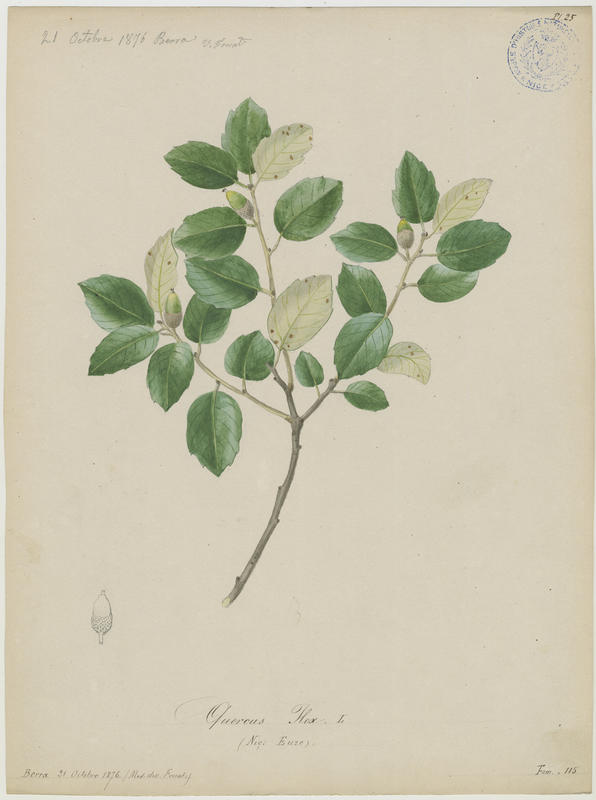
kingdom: Plantae
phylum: Tracheophyta
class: Magnoliopsida
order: Fagales
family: Fagaceae
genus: Quercus
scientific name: Quercus ilex
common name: Evergreen oak
